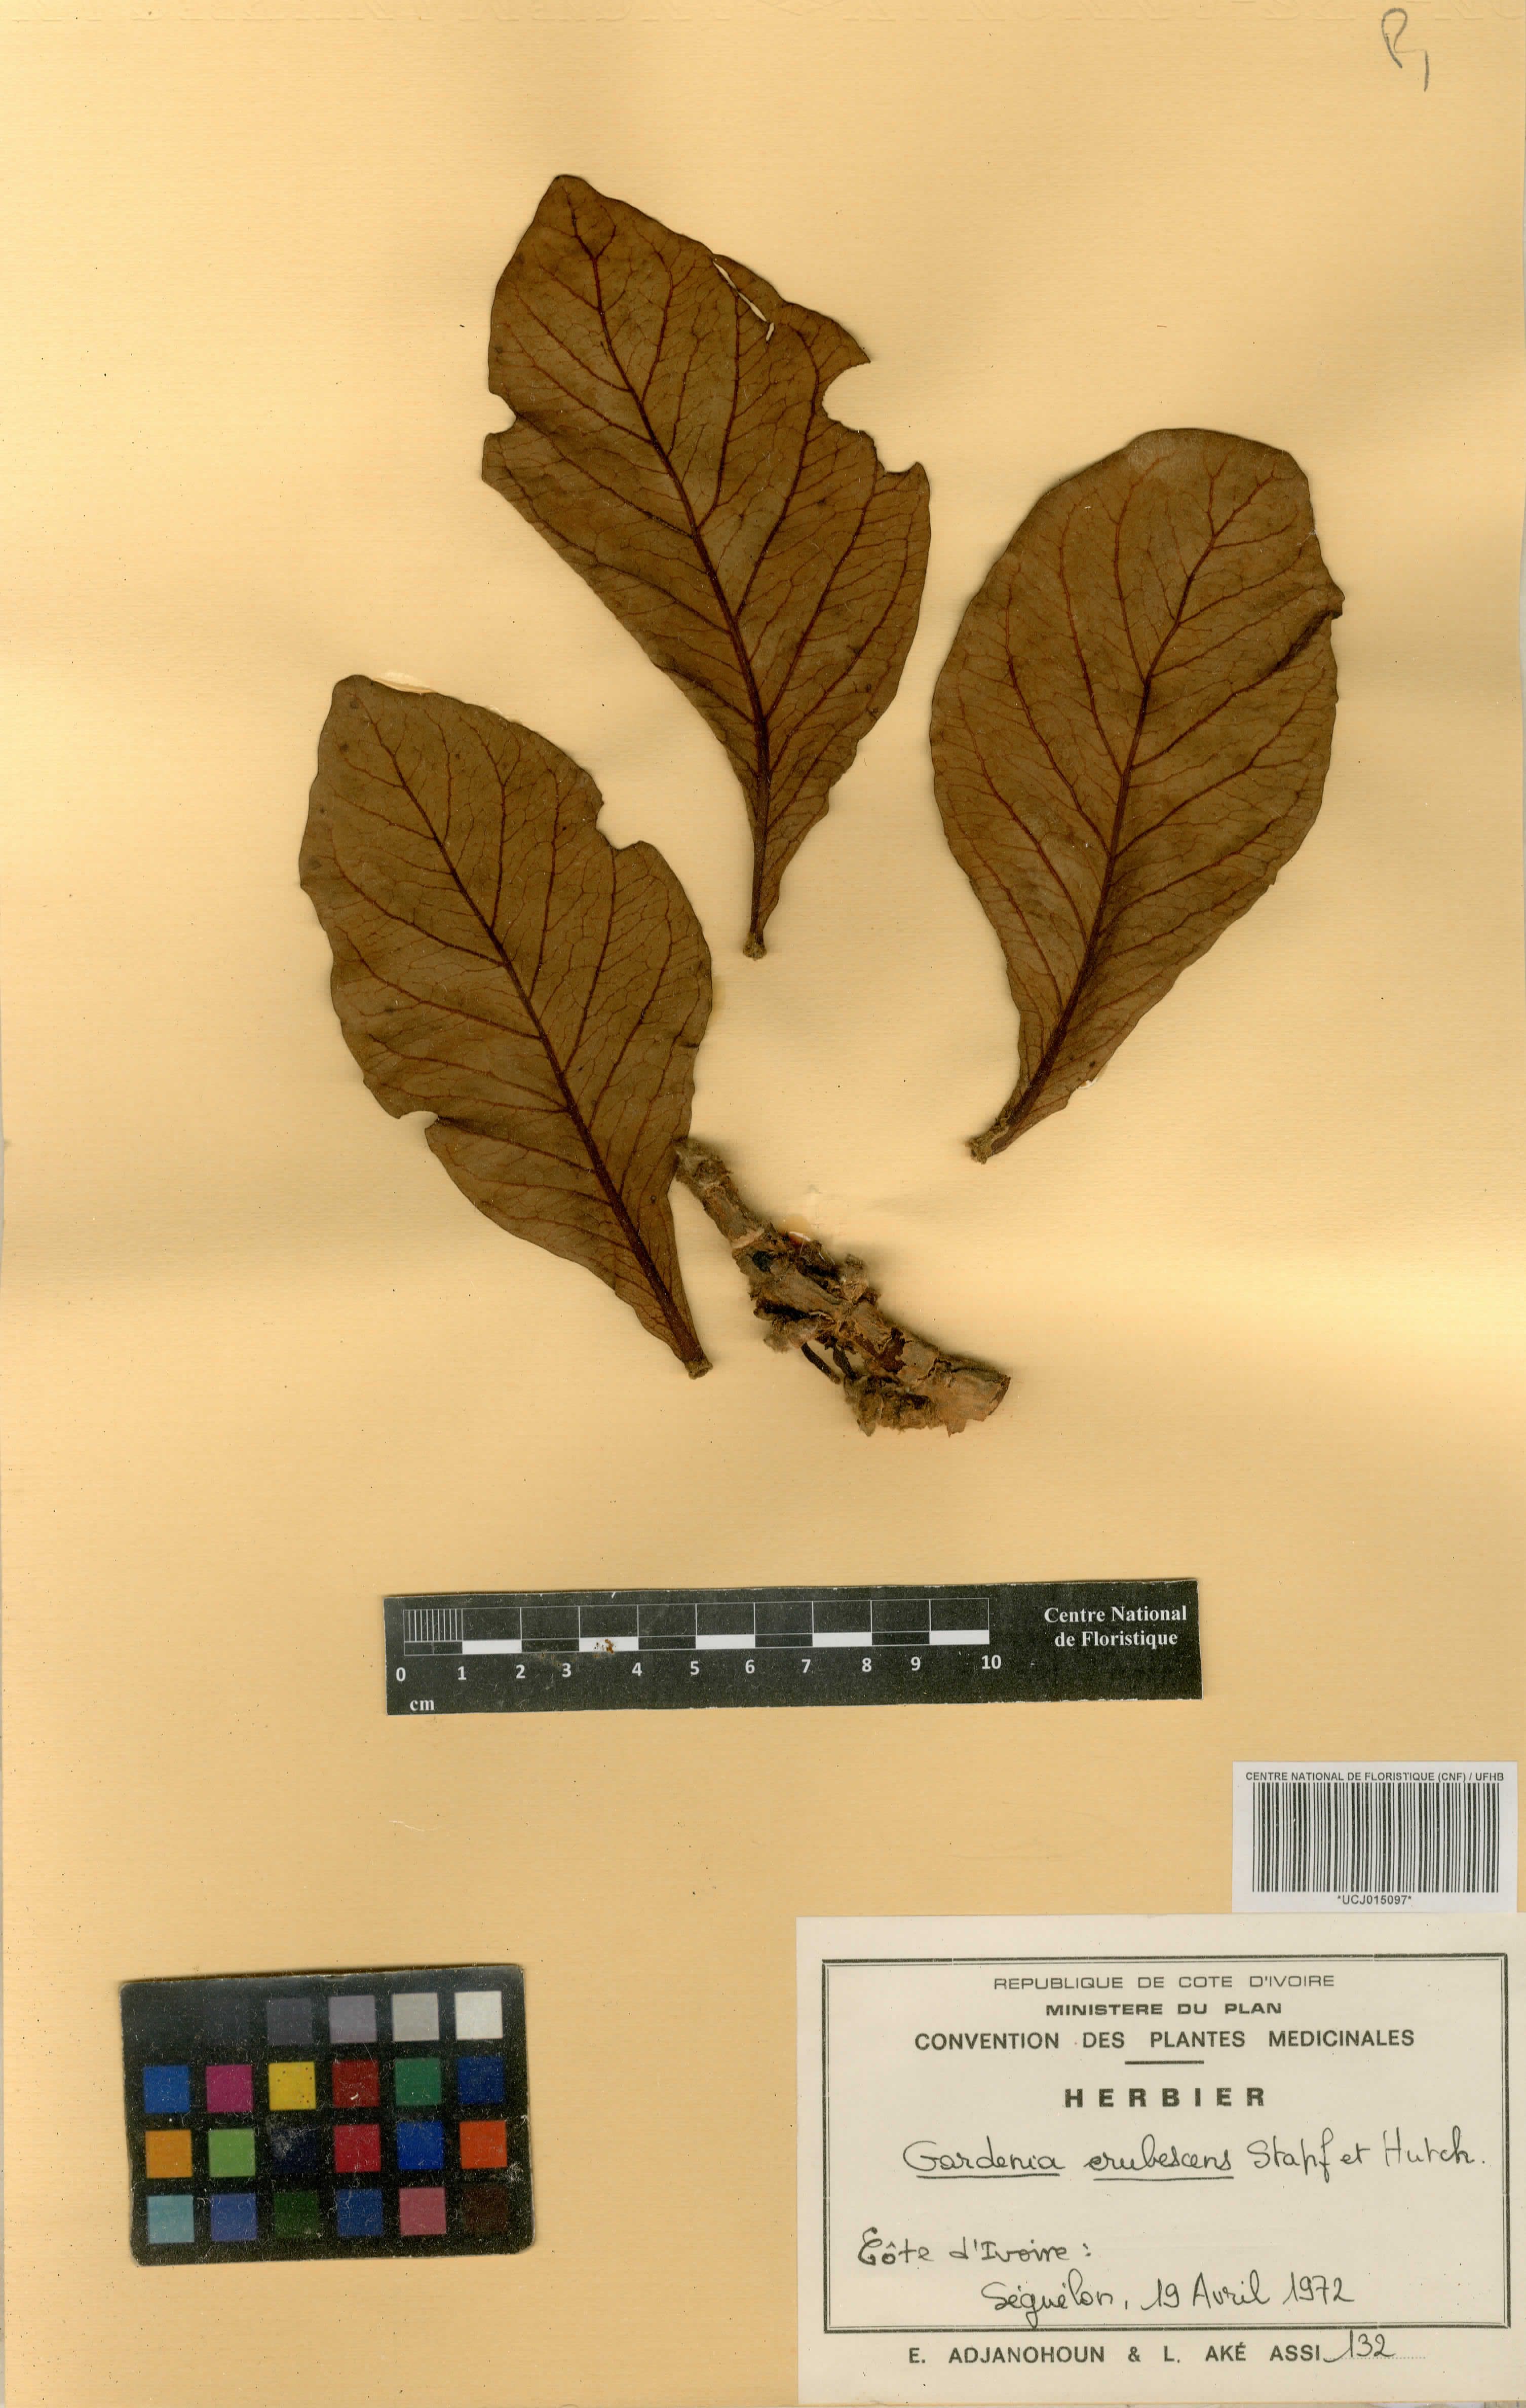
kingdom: Plantae
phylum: Tracheophyta
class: Magnoliopsida
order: Gentianales
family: Rubiaceae
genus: Gardenia
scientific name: Gardenia erubescens
